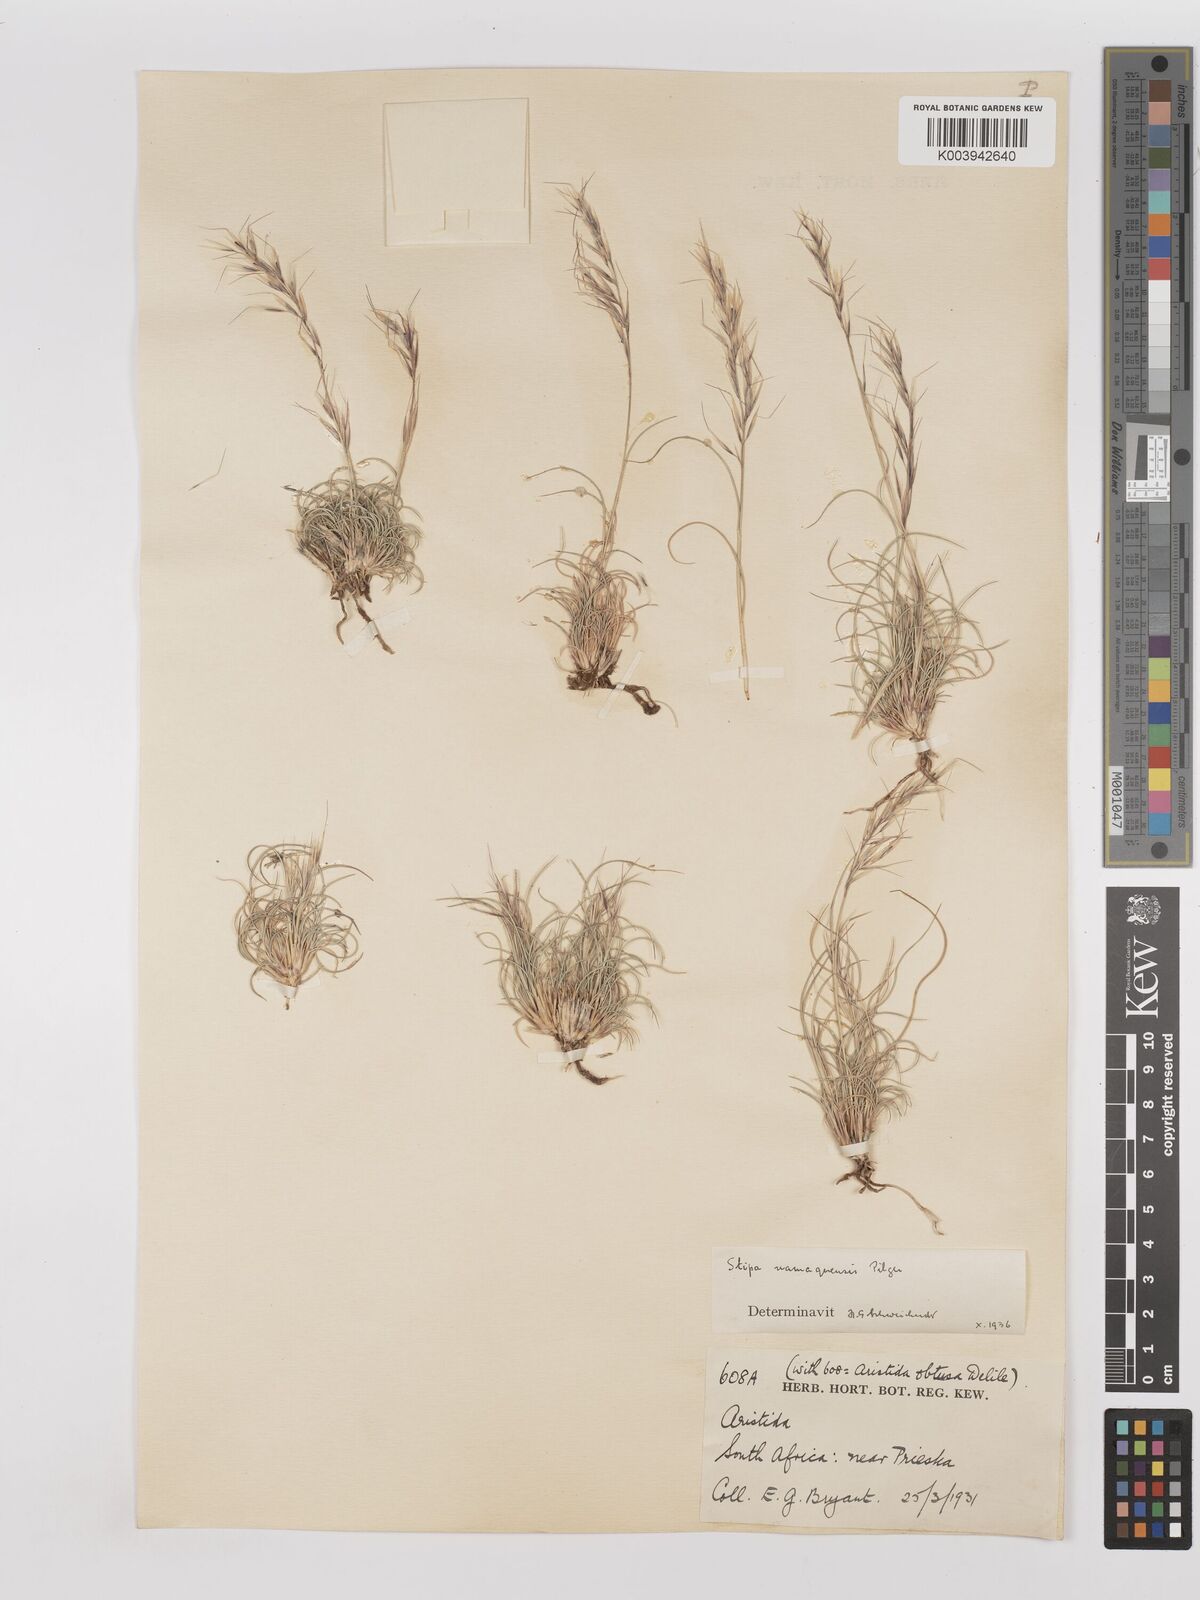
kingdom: Plantae
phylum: Tracheophyta
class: Liliopsida
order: Poales
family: Poaceae
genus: Stipagrostis
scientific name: Stipagrostis anomala
